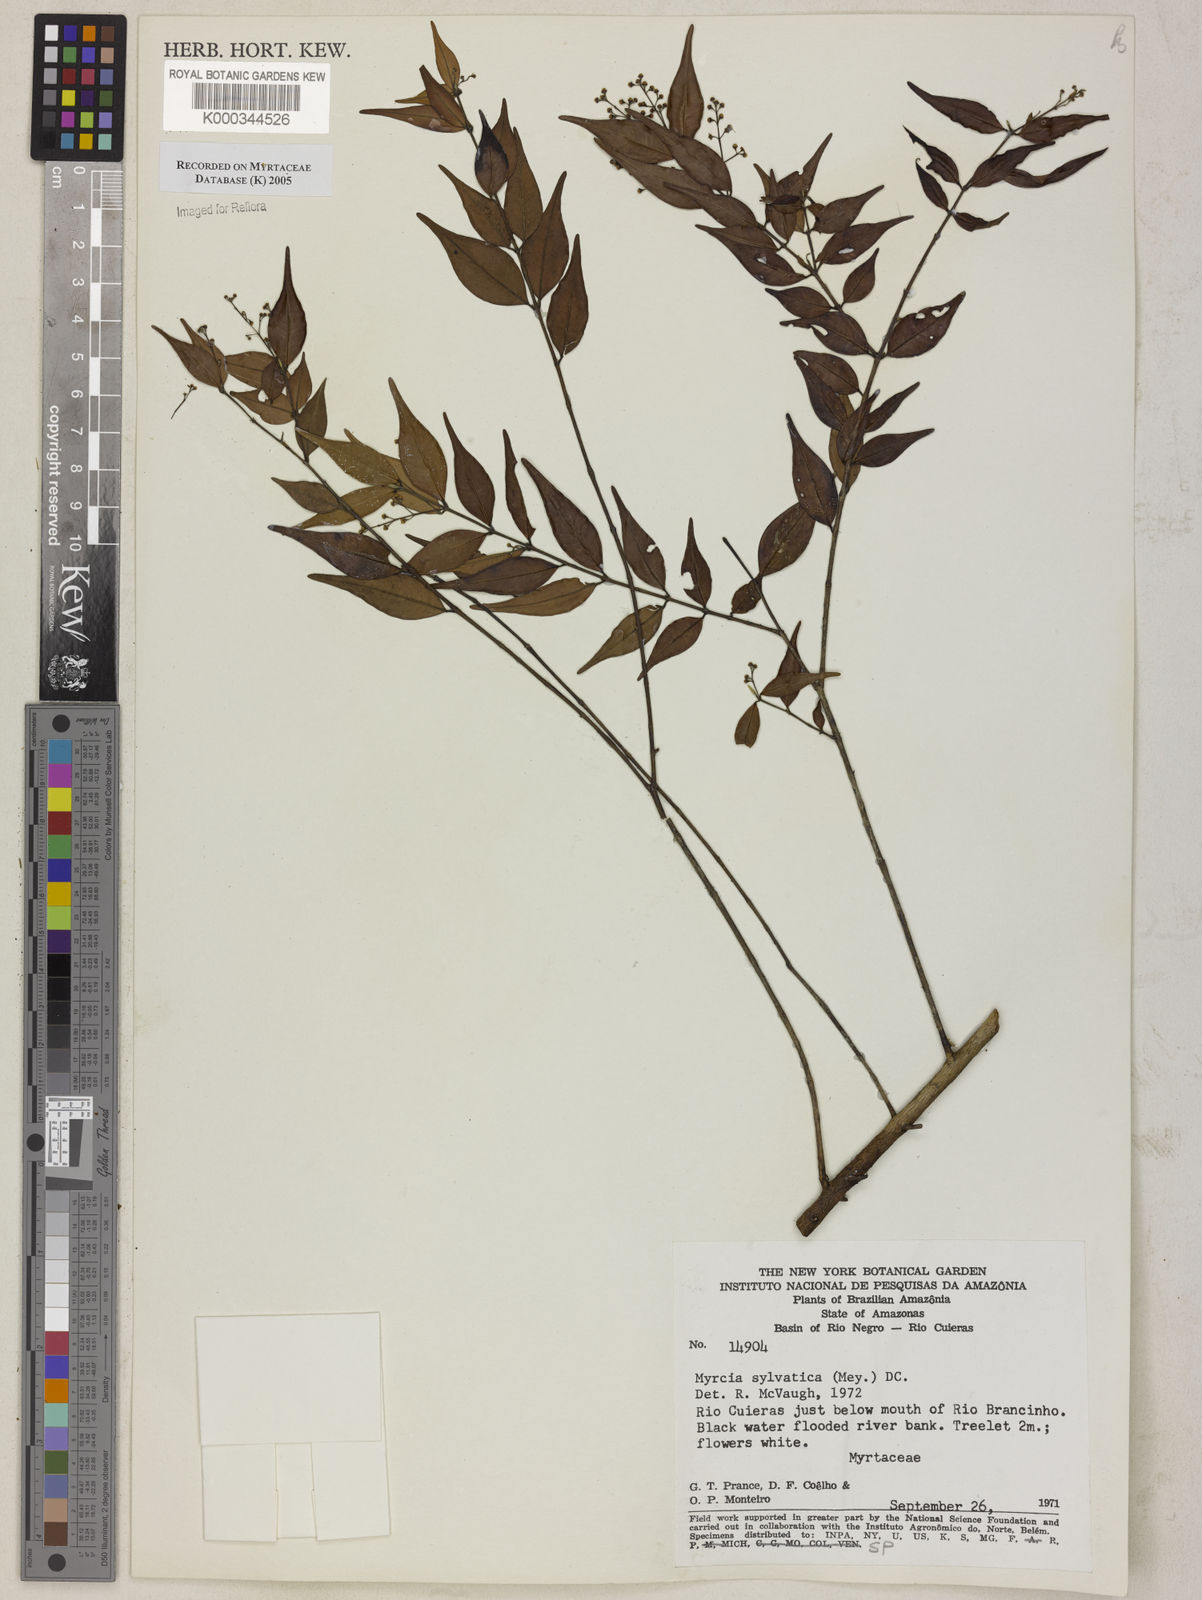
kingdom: Plantae
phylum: Tracheophyta
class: Magnoliopsida
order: Myrtales
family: Myrtaceae
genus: Myrcia
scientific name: Myrcia sylvatica
